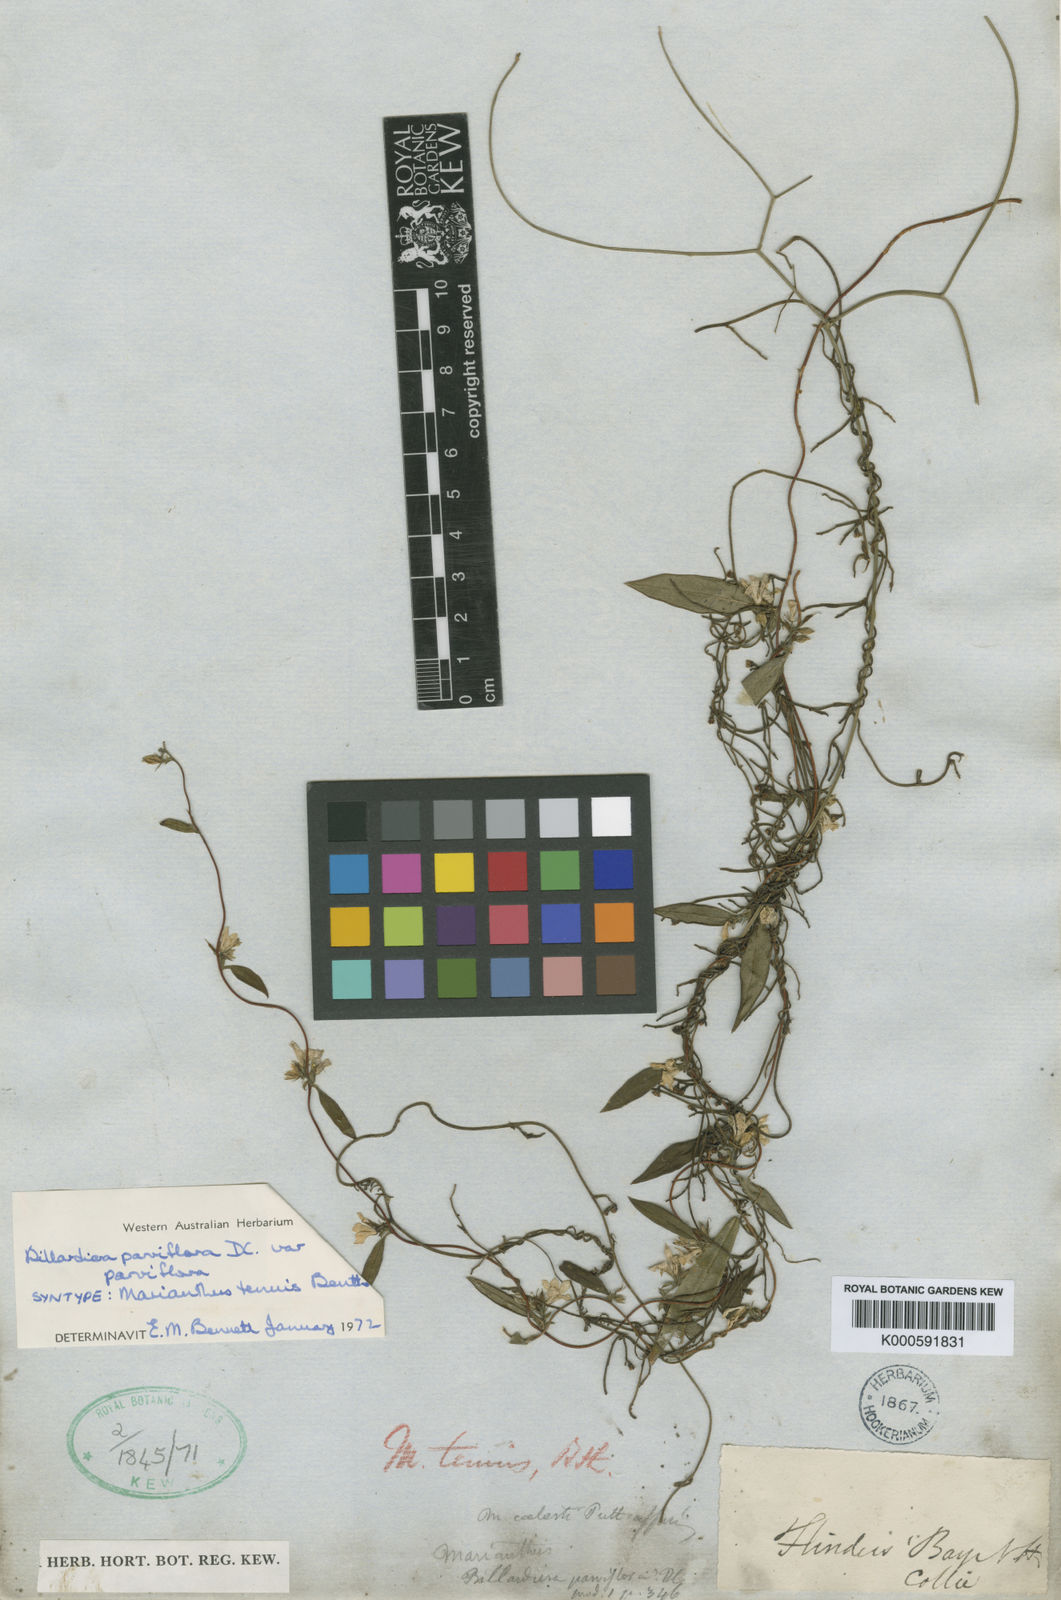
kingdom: Plantae
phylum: Tracheophyta
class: Magnoliopsida
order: Apiales
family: Pittosporaceae
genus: Marianthus
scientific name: Marianthus tenuis
